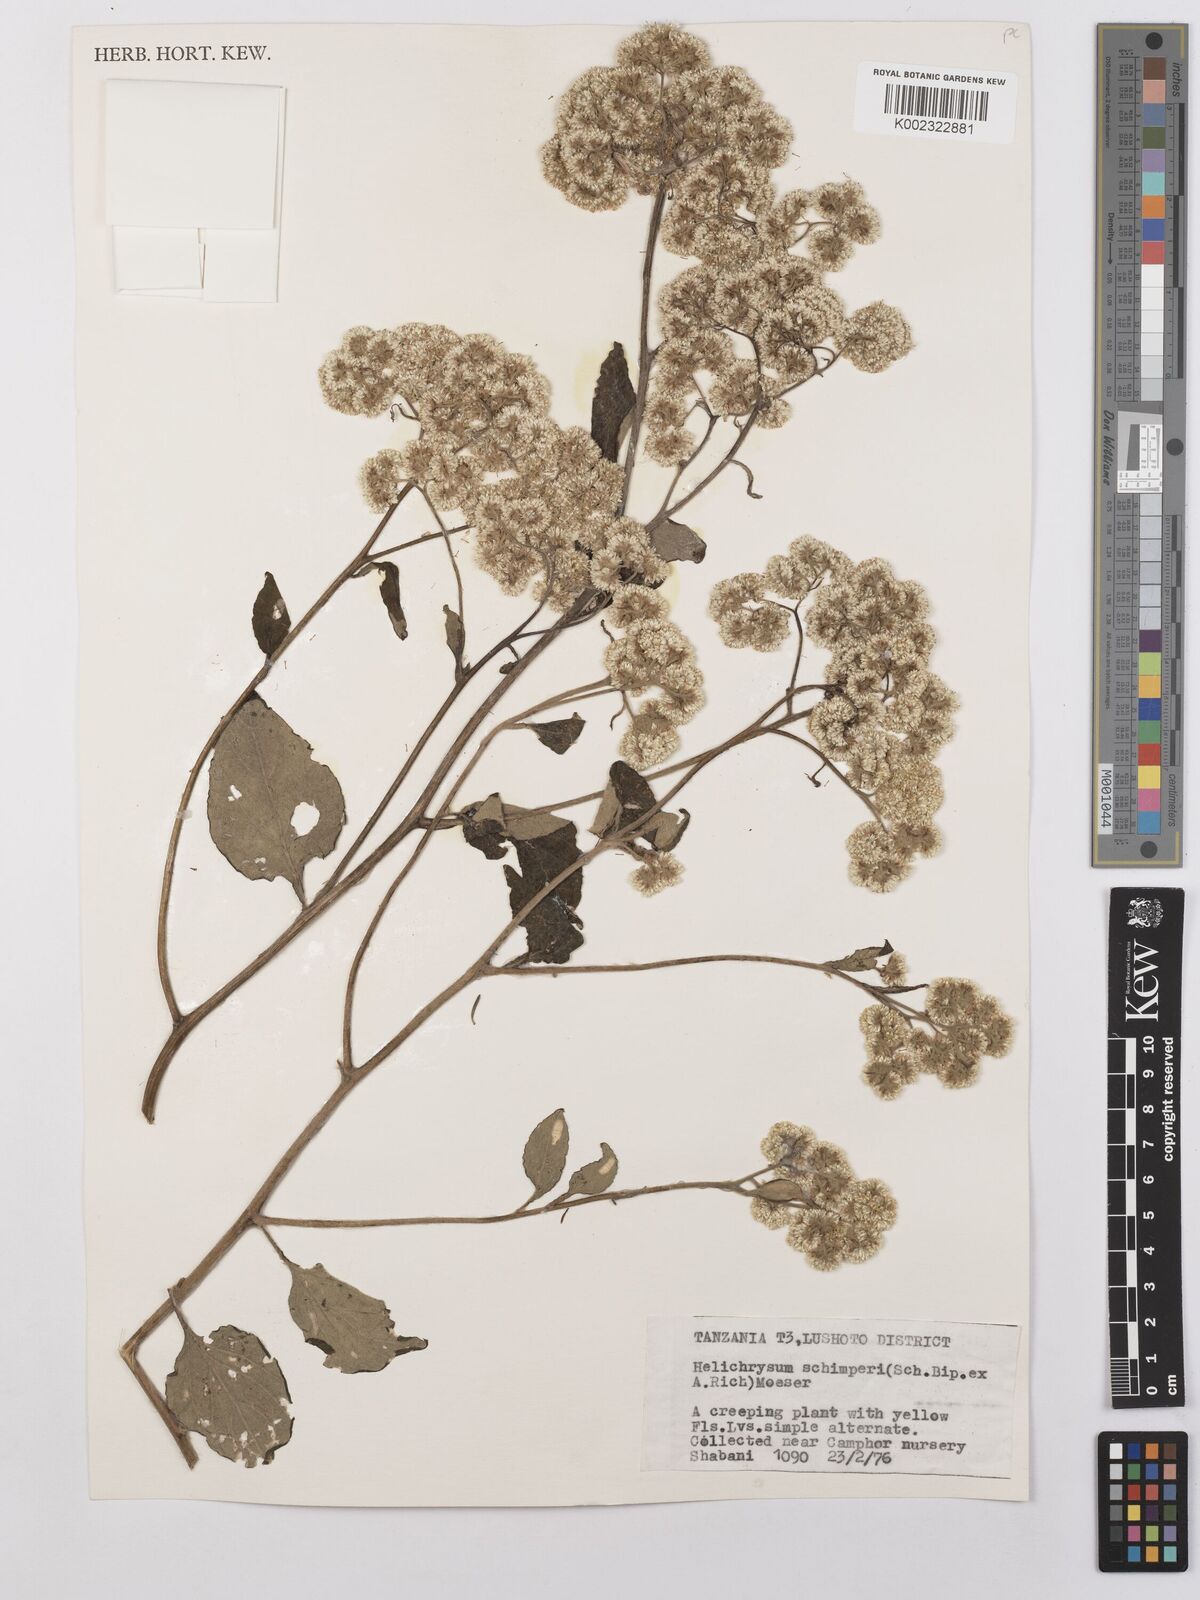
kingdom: Plantae
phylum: Tracheophyta
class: Magnoliopsida
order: Asterales
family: Asteraceae
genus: Helichrysum
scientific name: Helichrysum schimperi
